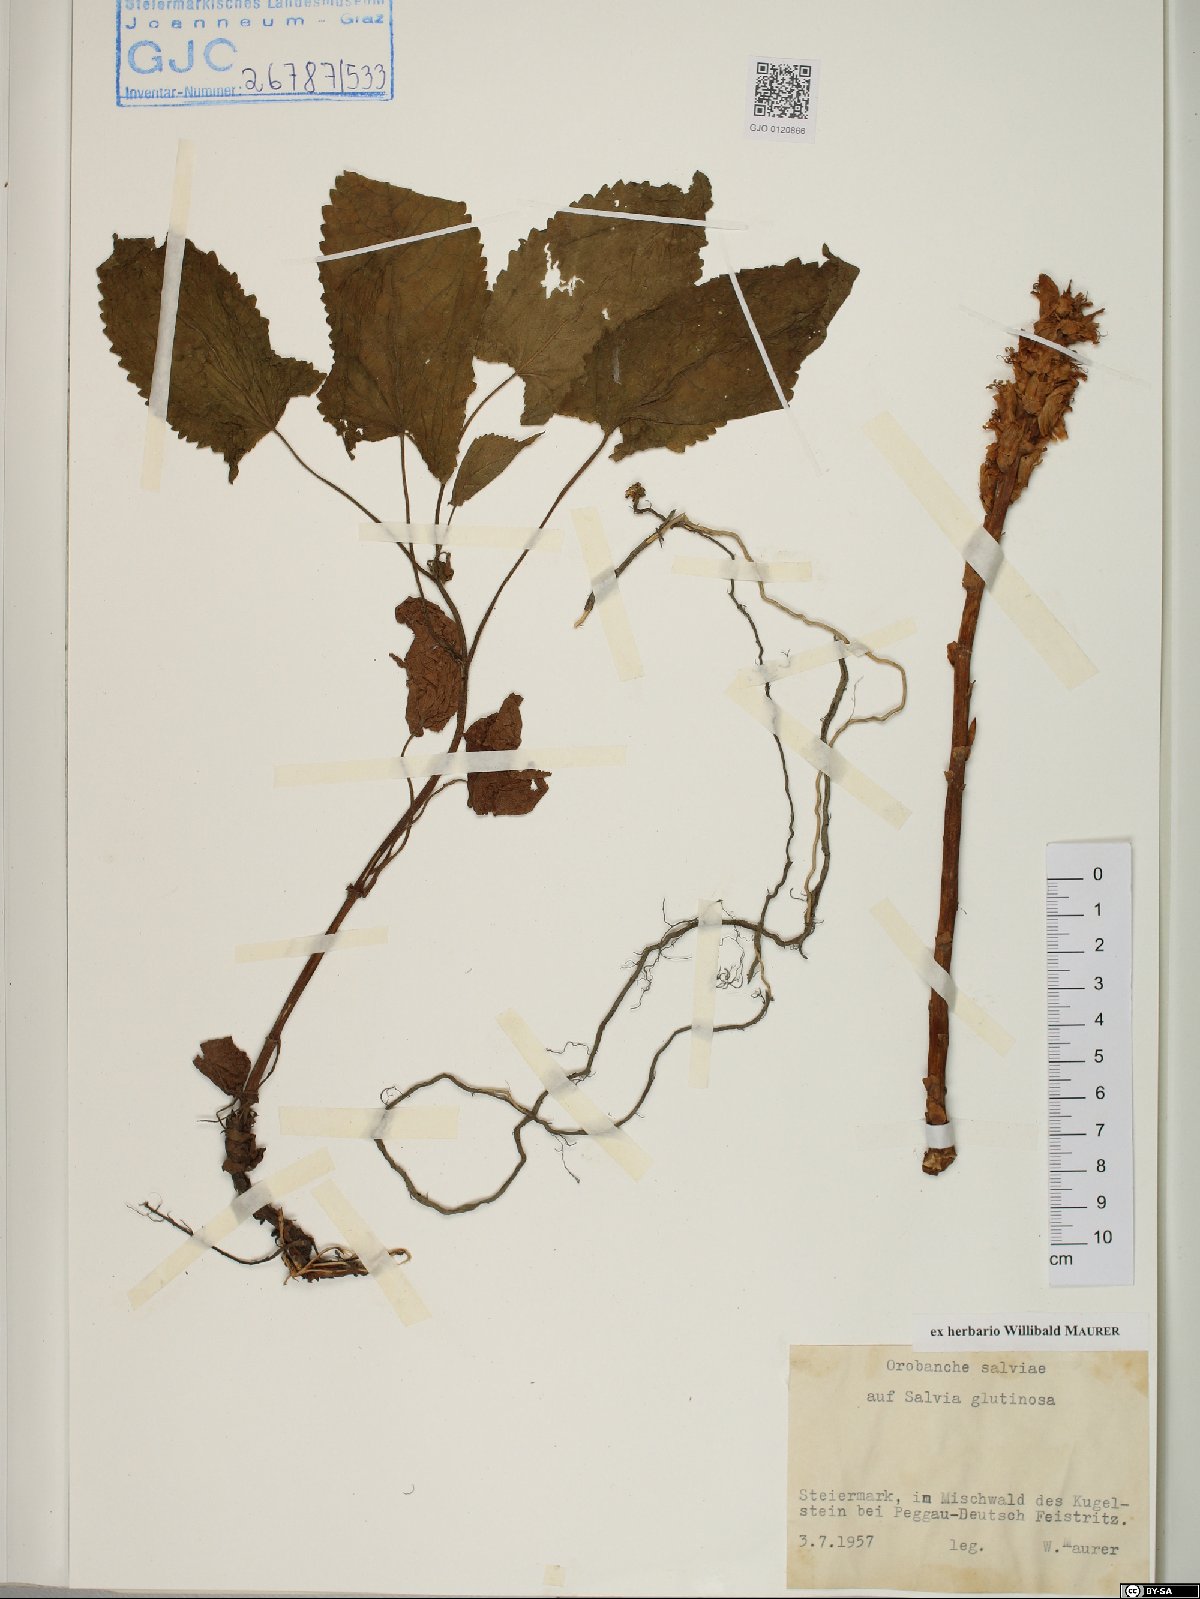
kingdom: Plantae
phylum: Tracheophyta
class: Magnoliopsida
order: Lamiales
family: Orobanchaceae
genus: Orobanche
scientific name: Orobanche salviae
